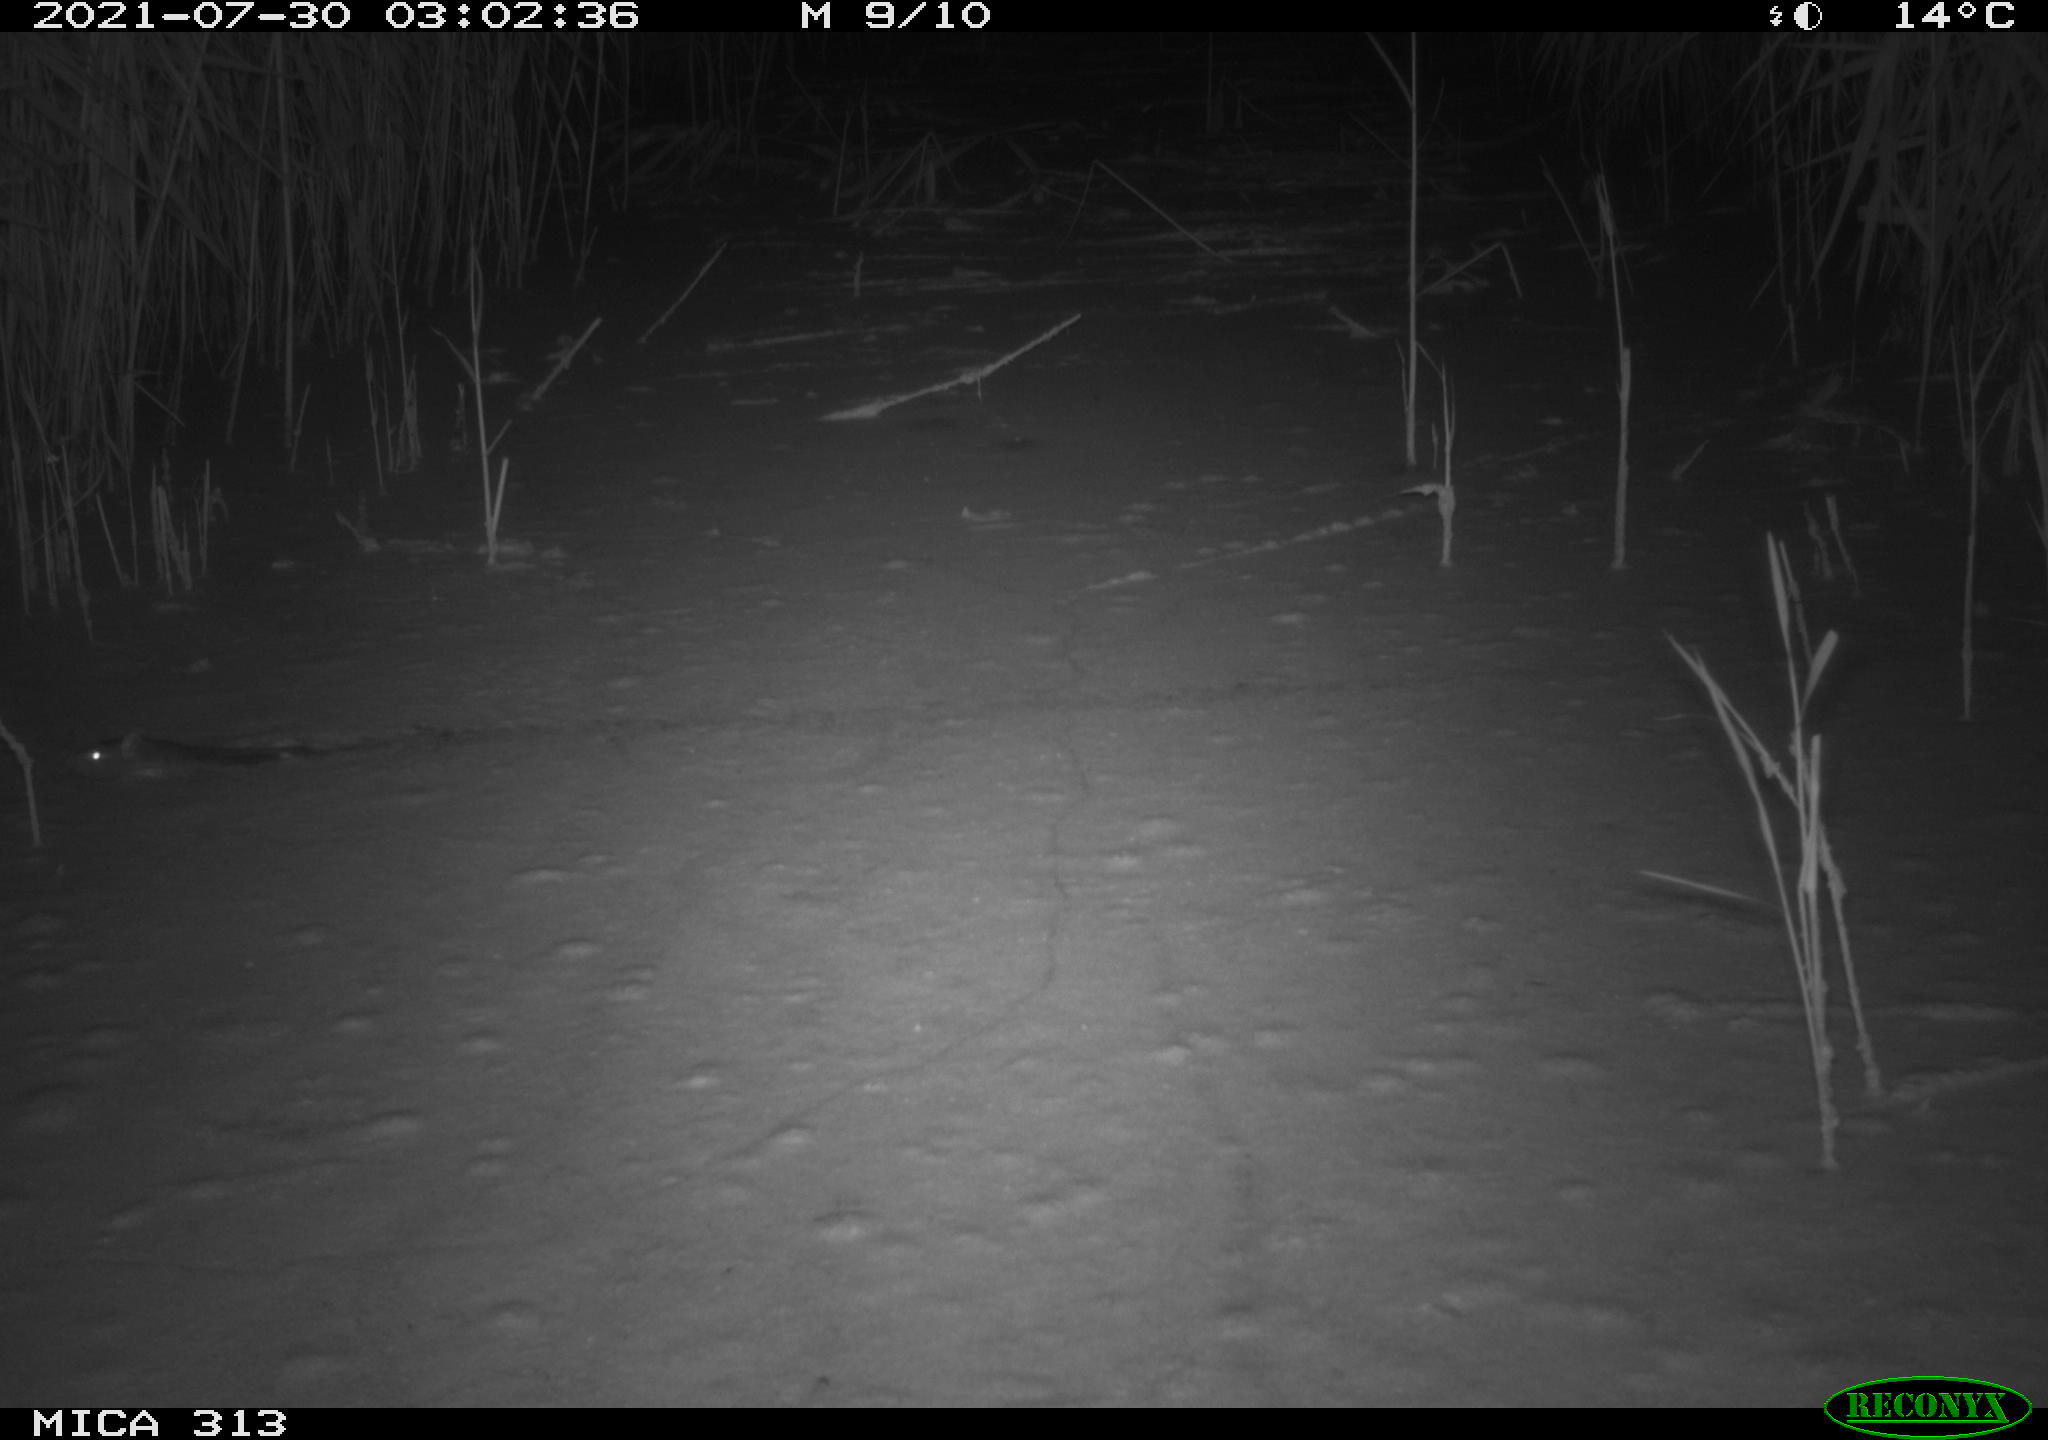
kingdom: Animalia
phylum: Chordata
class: Mammalia
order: Rodentia
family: Muridae
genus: Rattus
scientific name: Rattus norvegicus
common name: Brown rat
